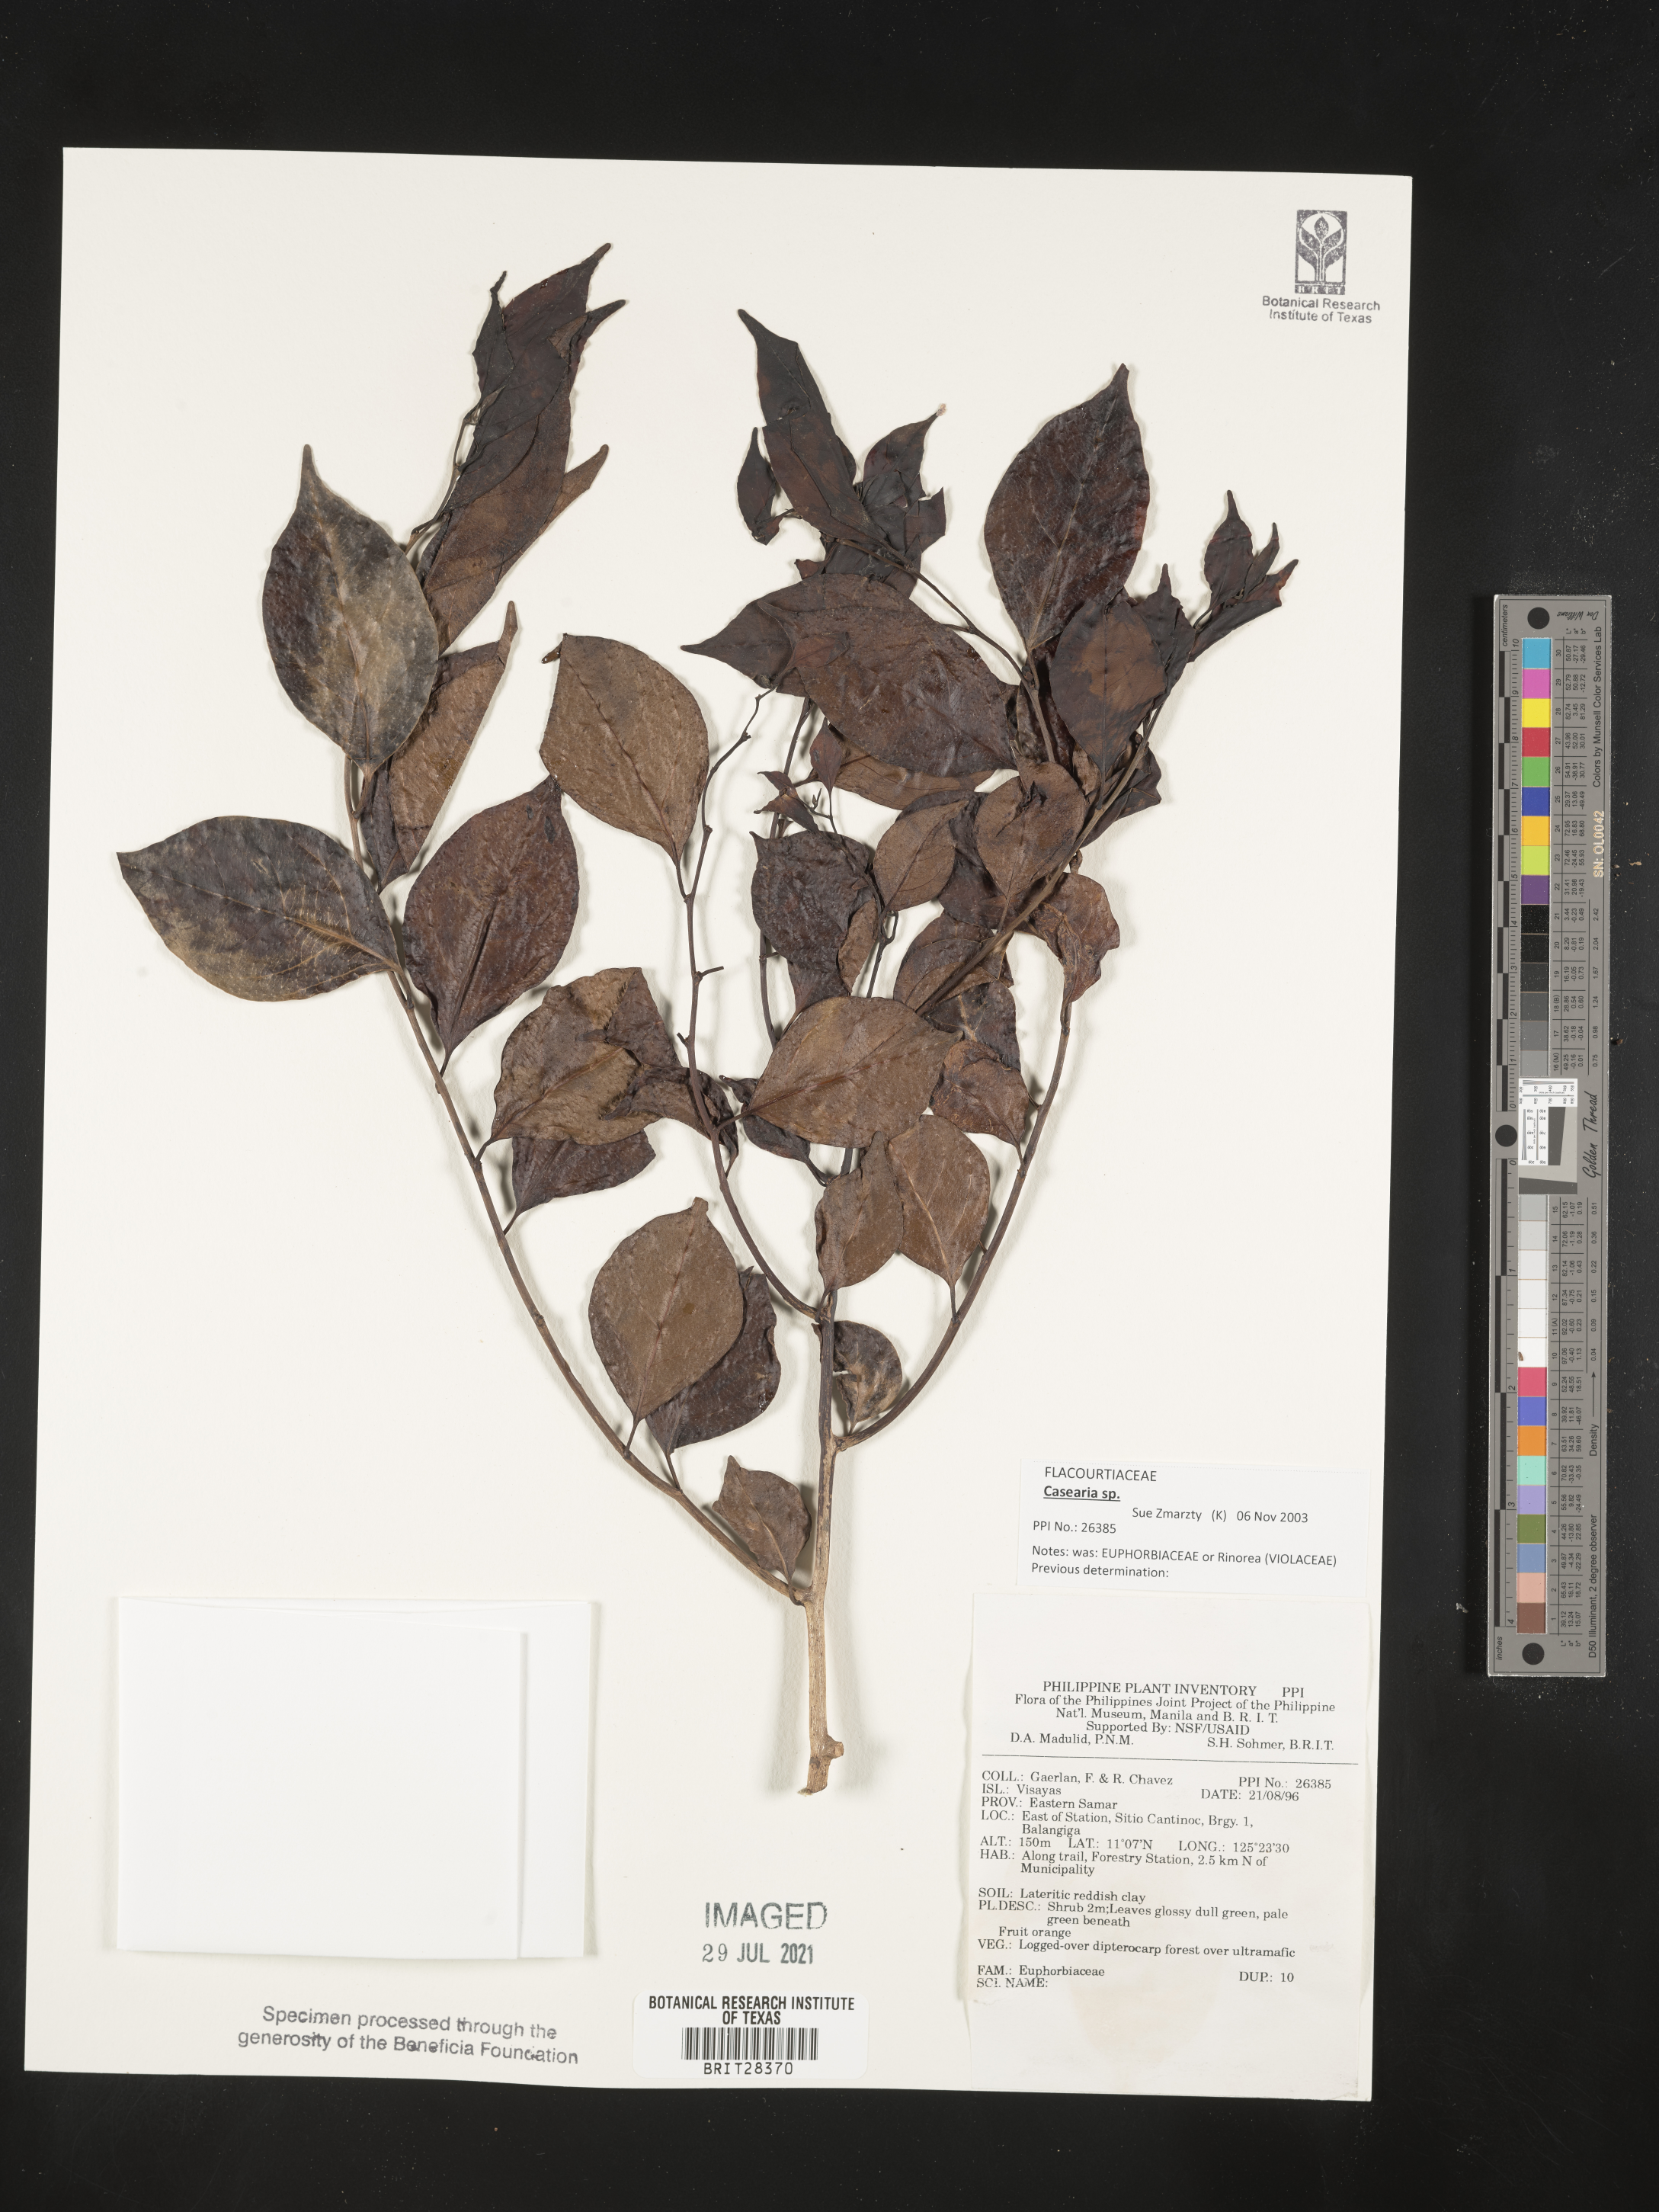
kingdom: Plantae
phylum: Tracheophyta
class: Magnoliopsida
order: Malpighiales
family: Salicaceae
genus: Casearia
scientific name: Casearia
